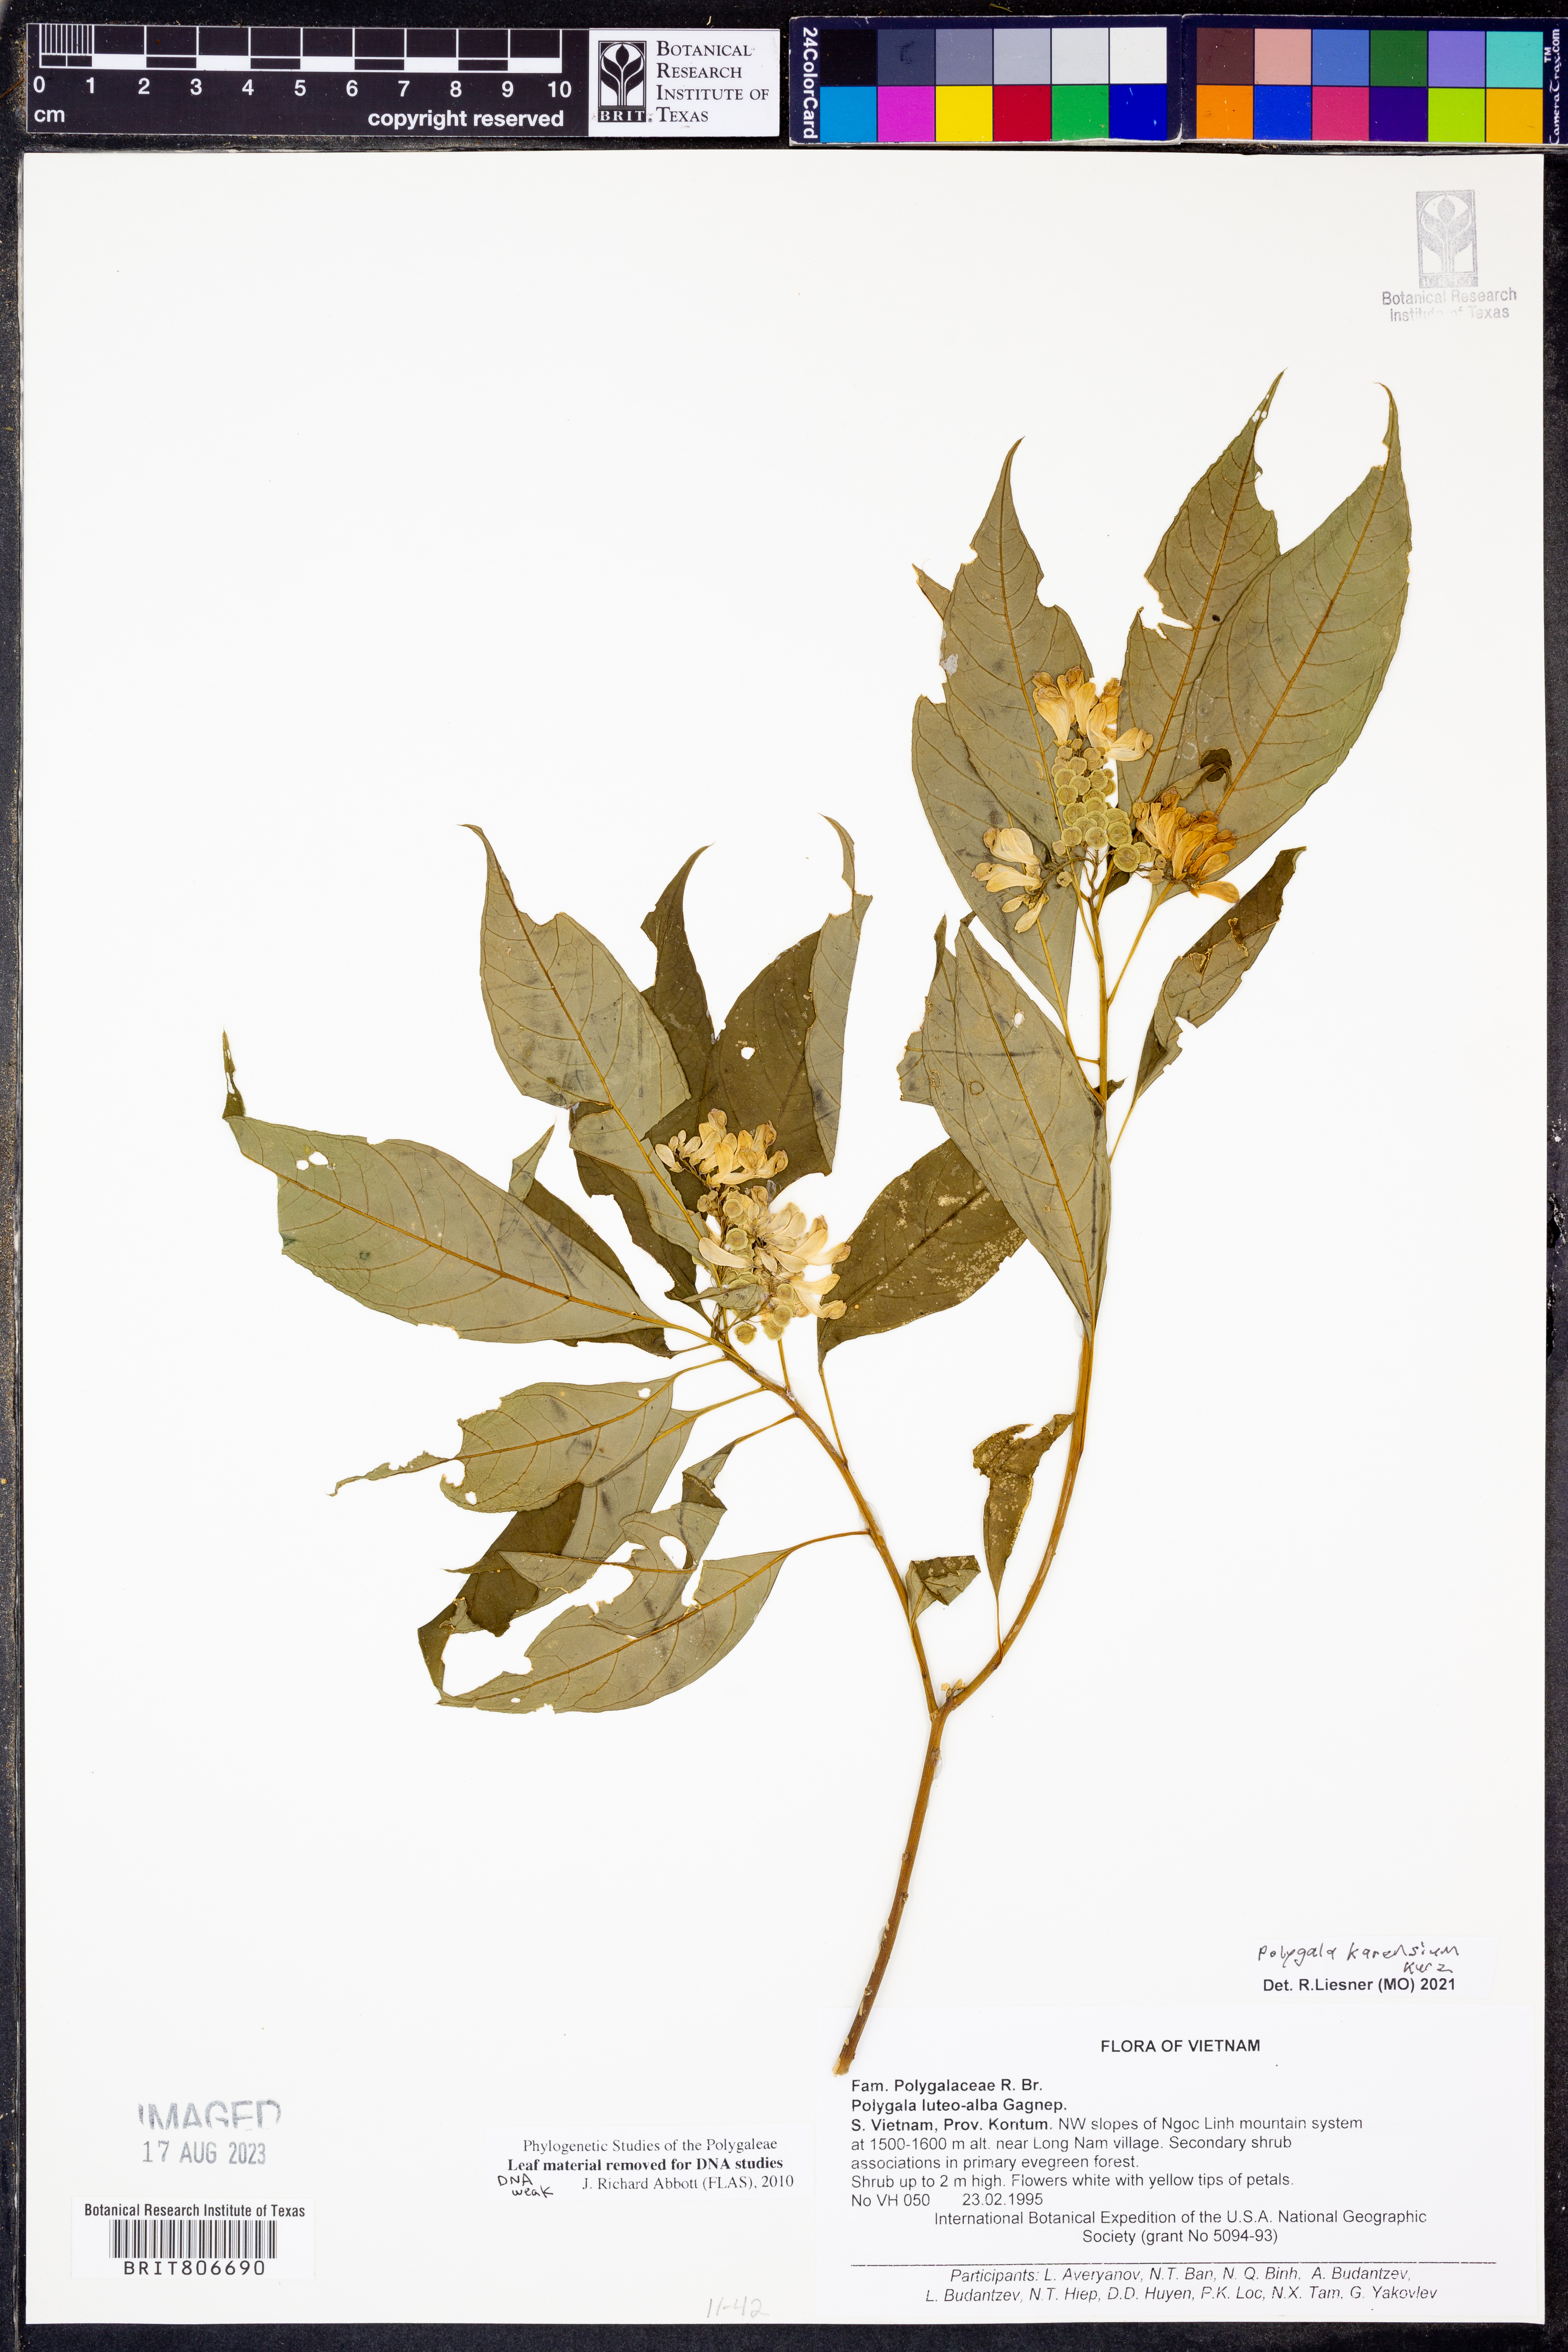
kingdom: Plantae
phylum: Tracheophyta
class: Magnoliopsida
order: Fabales
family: Polygalaceae
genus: Polygala
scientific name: Polygala karensium
